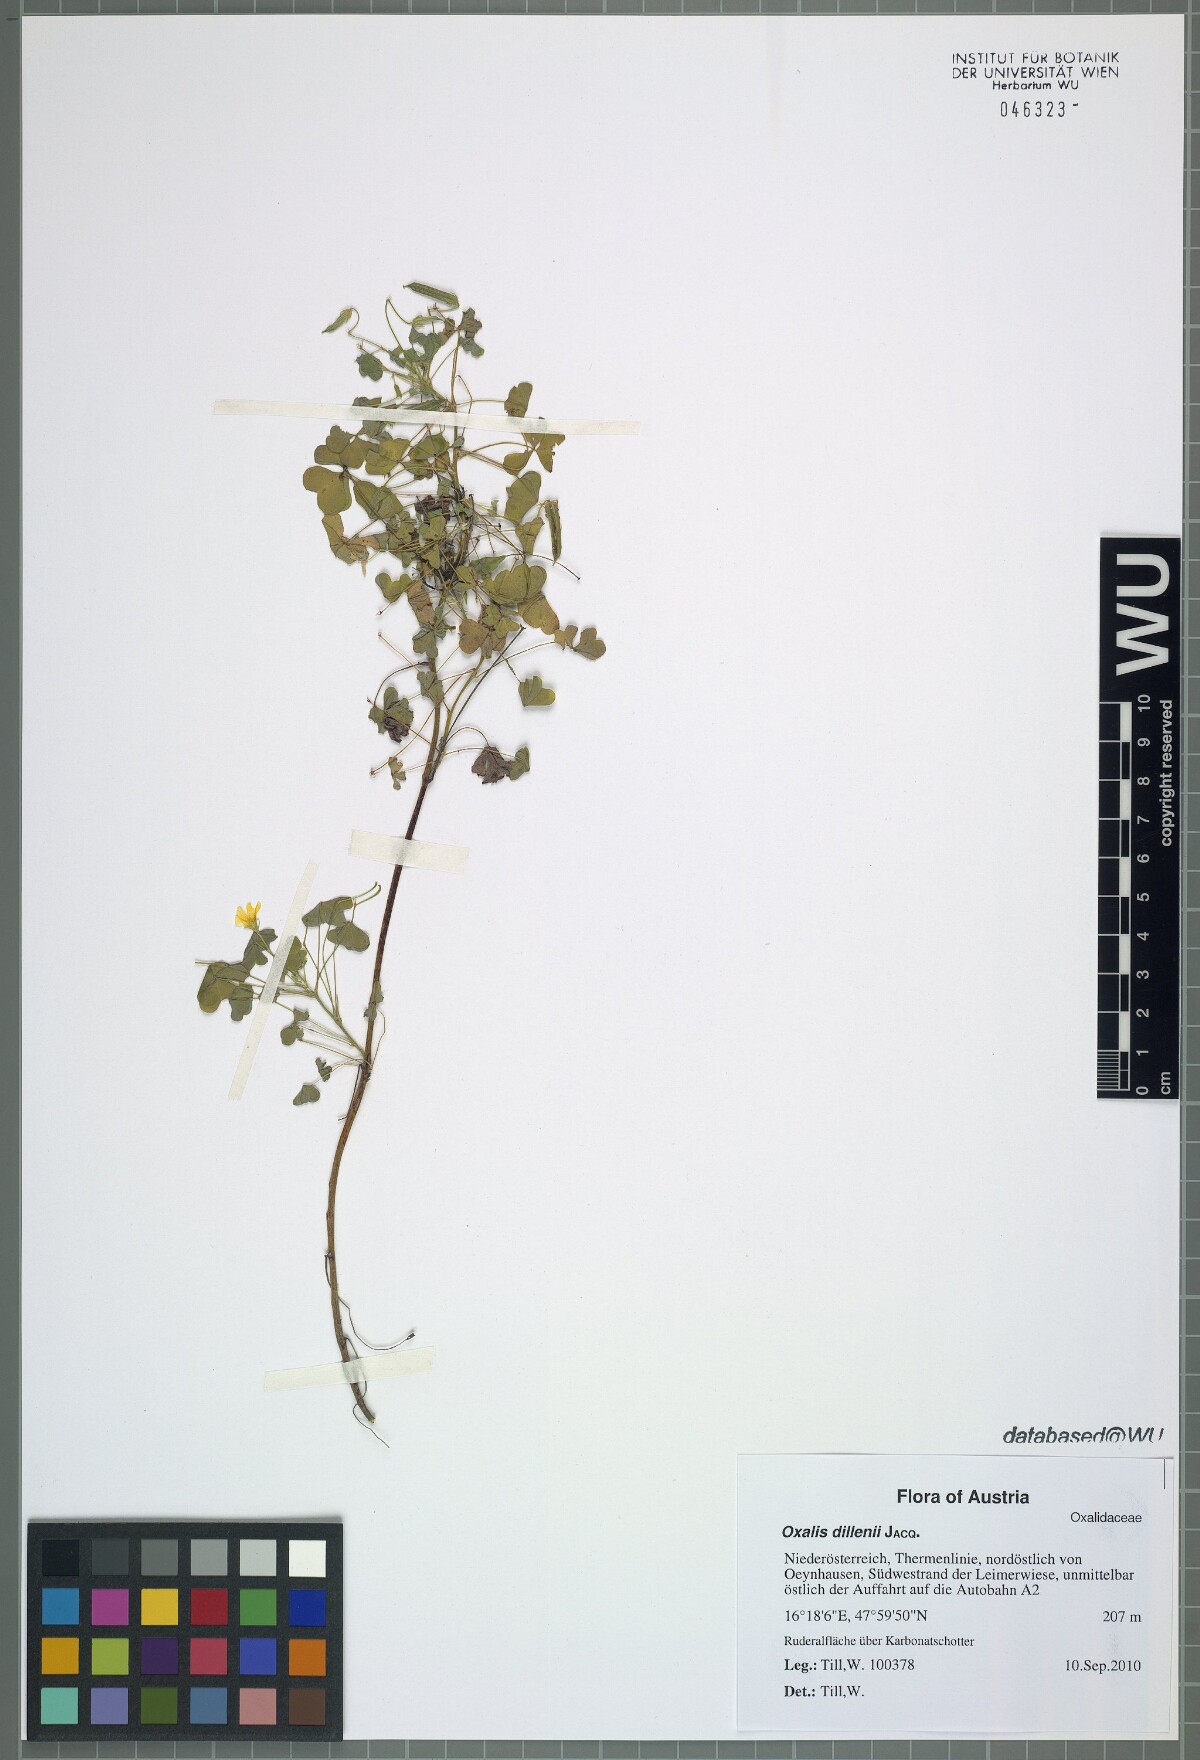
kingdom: Plantae
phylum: Tracheophyta
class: Magnoliopsida
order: Oxalidales
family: Oxalidaceae
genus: Oxalis
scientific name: Oxalis dillenii
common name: Sussex yellow-sorrel
